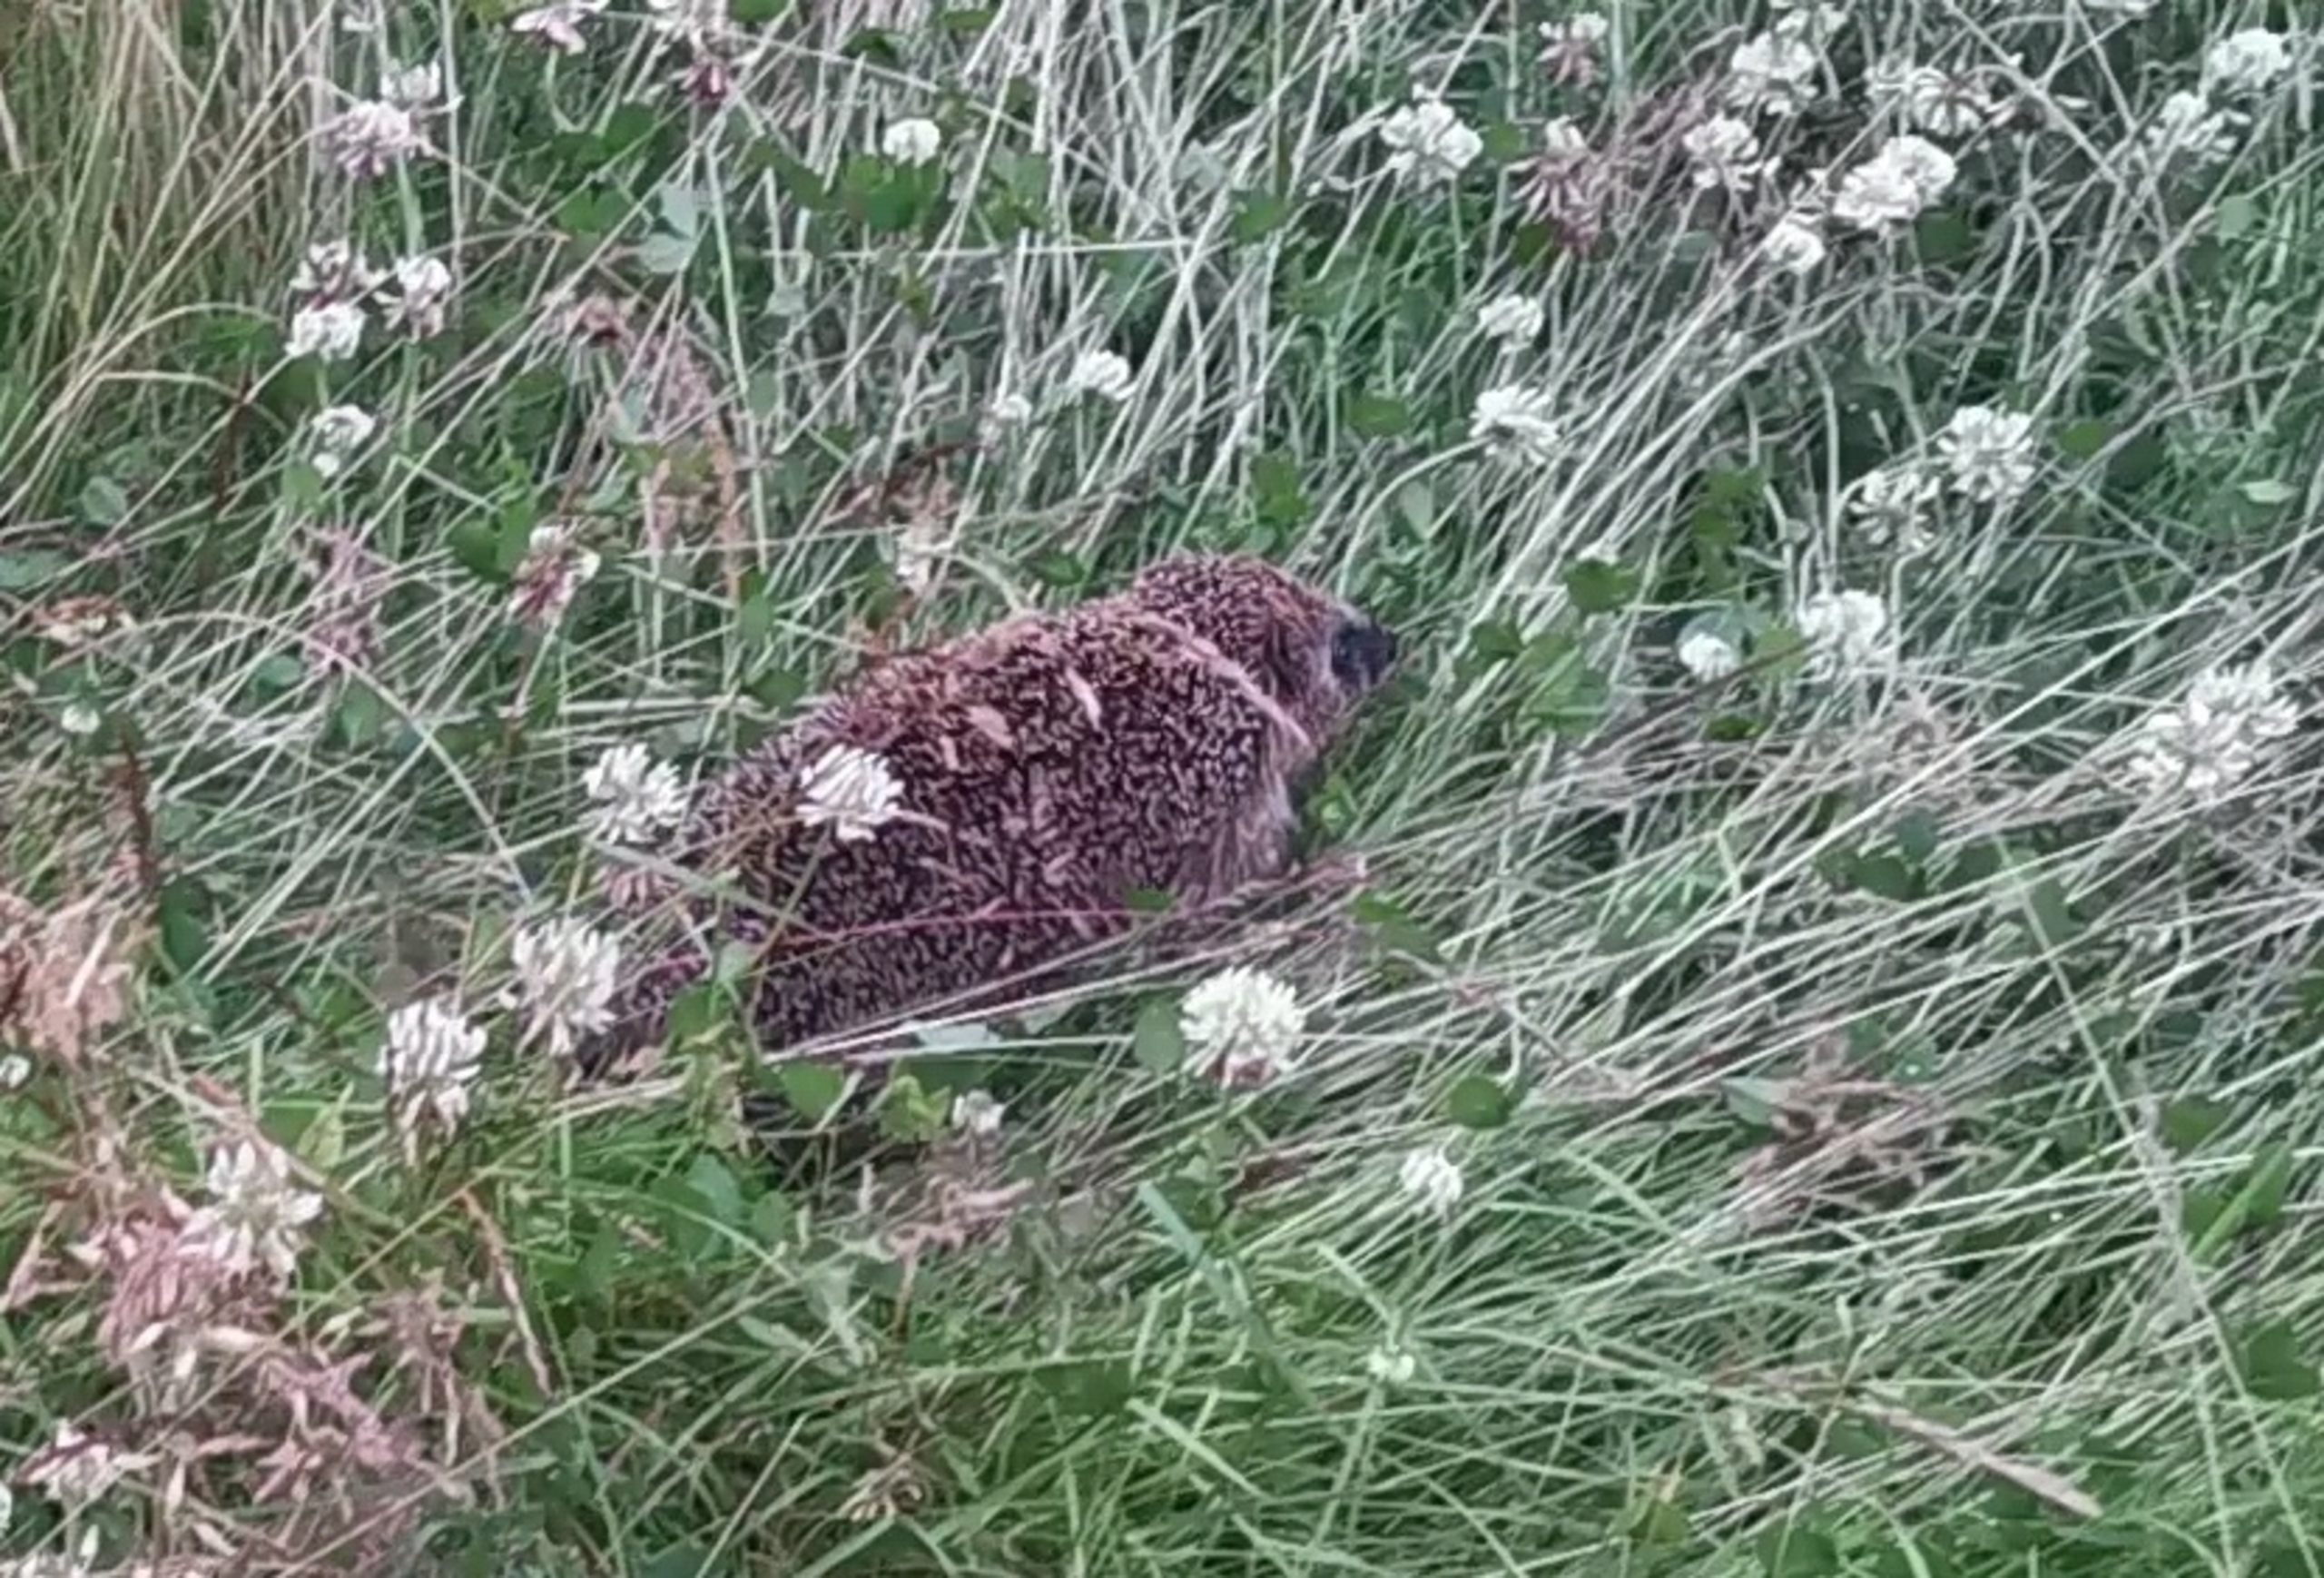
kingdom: Animalia
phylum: Chordata
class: Mammalia
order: Erinaceomorpha
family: Erinaceidae
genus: Erinaceus
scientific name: Erinaceus europaeus
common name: Pindsvin
